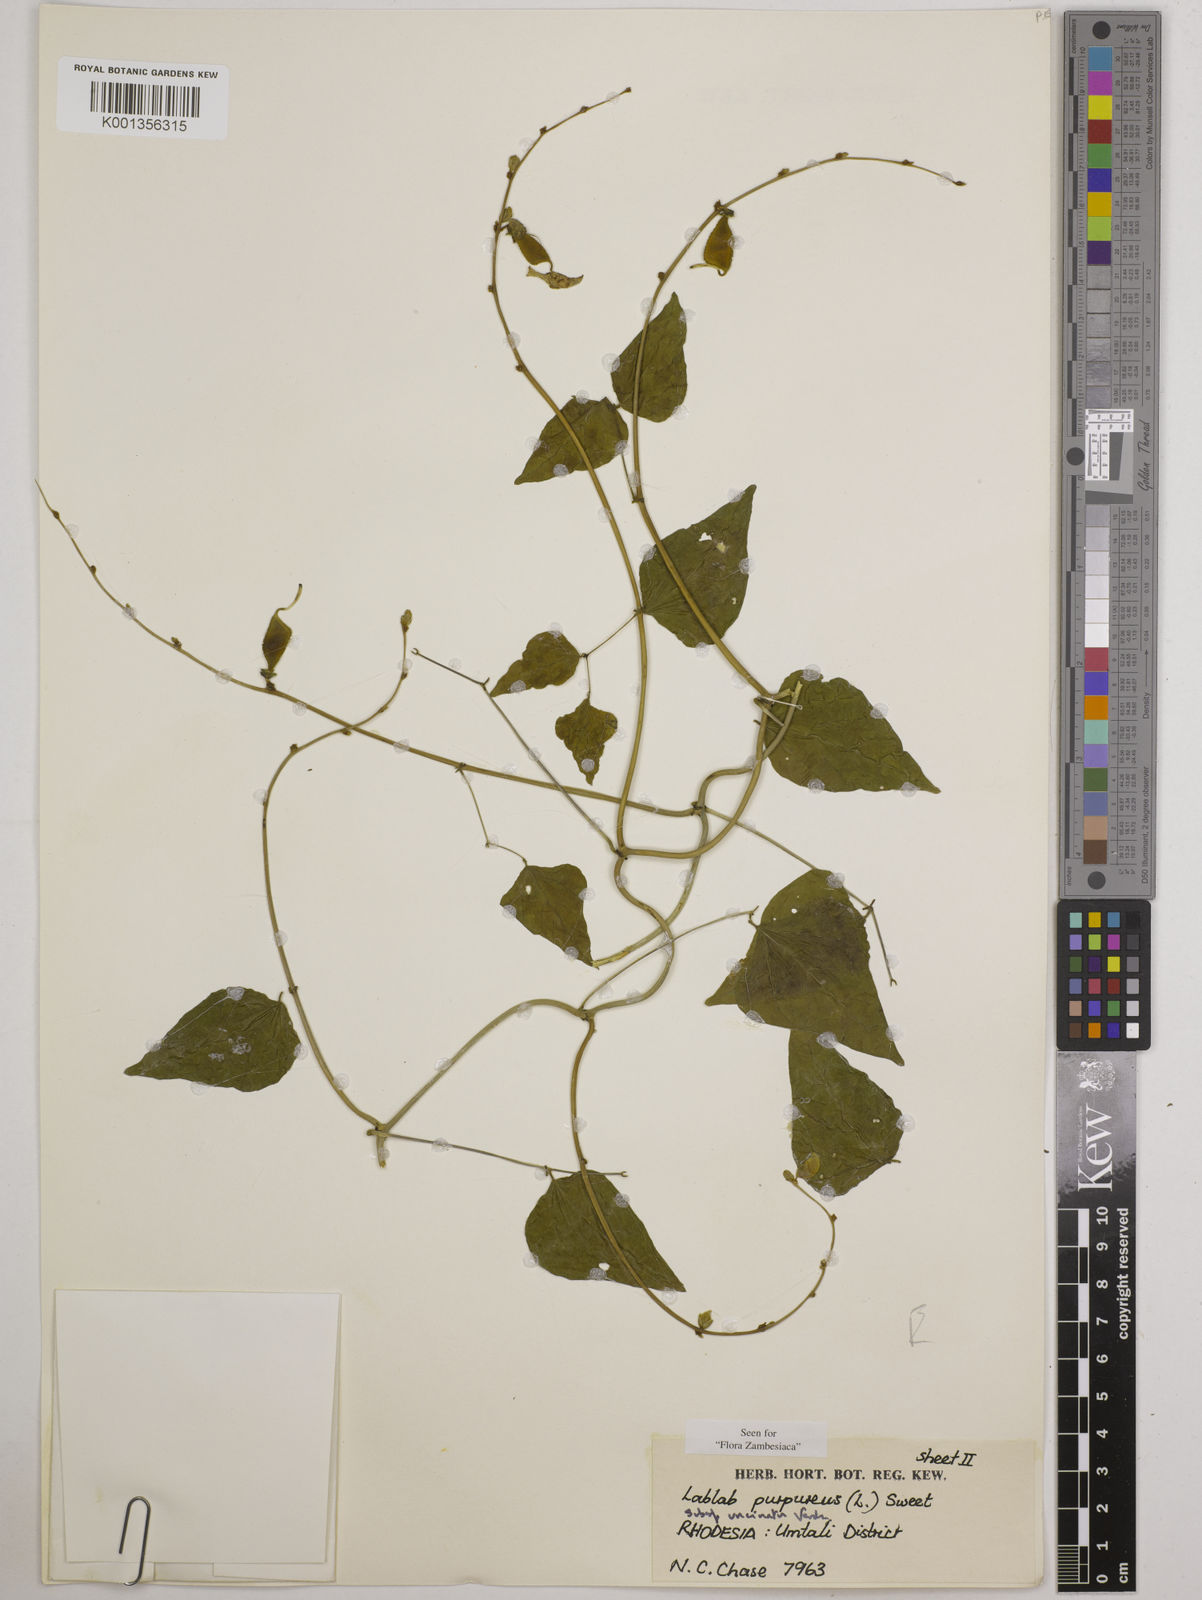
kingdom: Plantae
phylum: Tracheophyta
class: Magnoliopsida
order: Fabales
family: Fabaceae
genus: Lablab
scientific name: Lablab purpureus
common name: Lablab-bean
